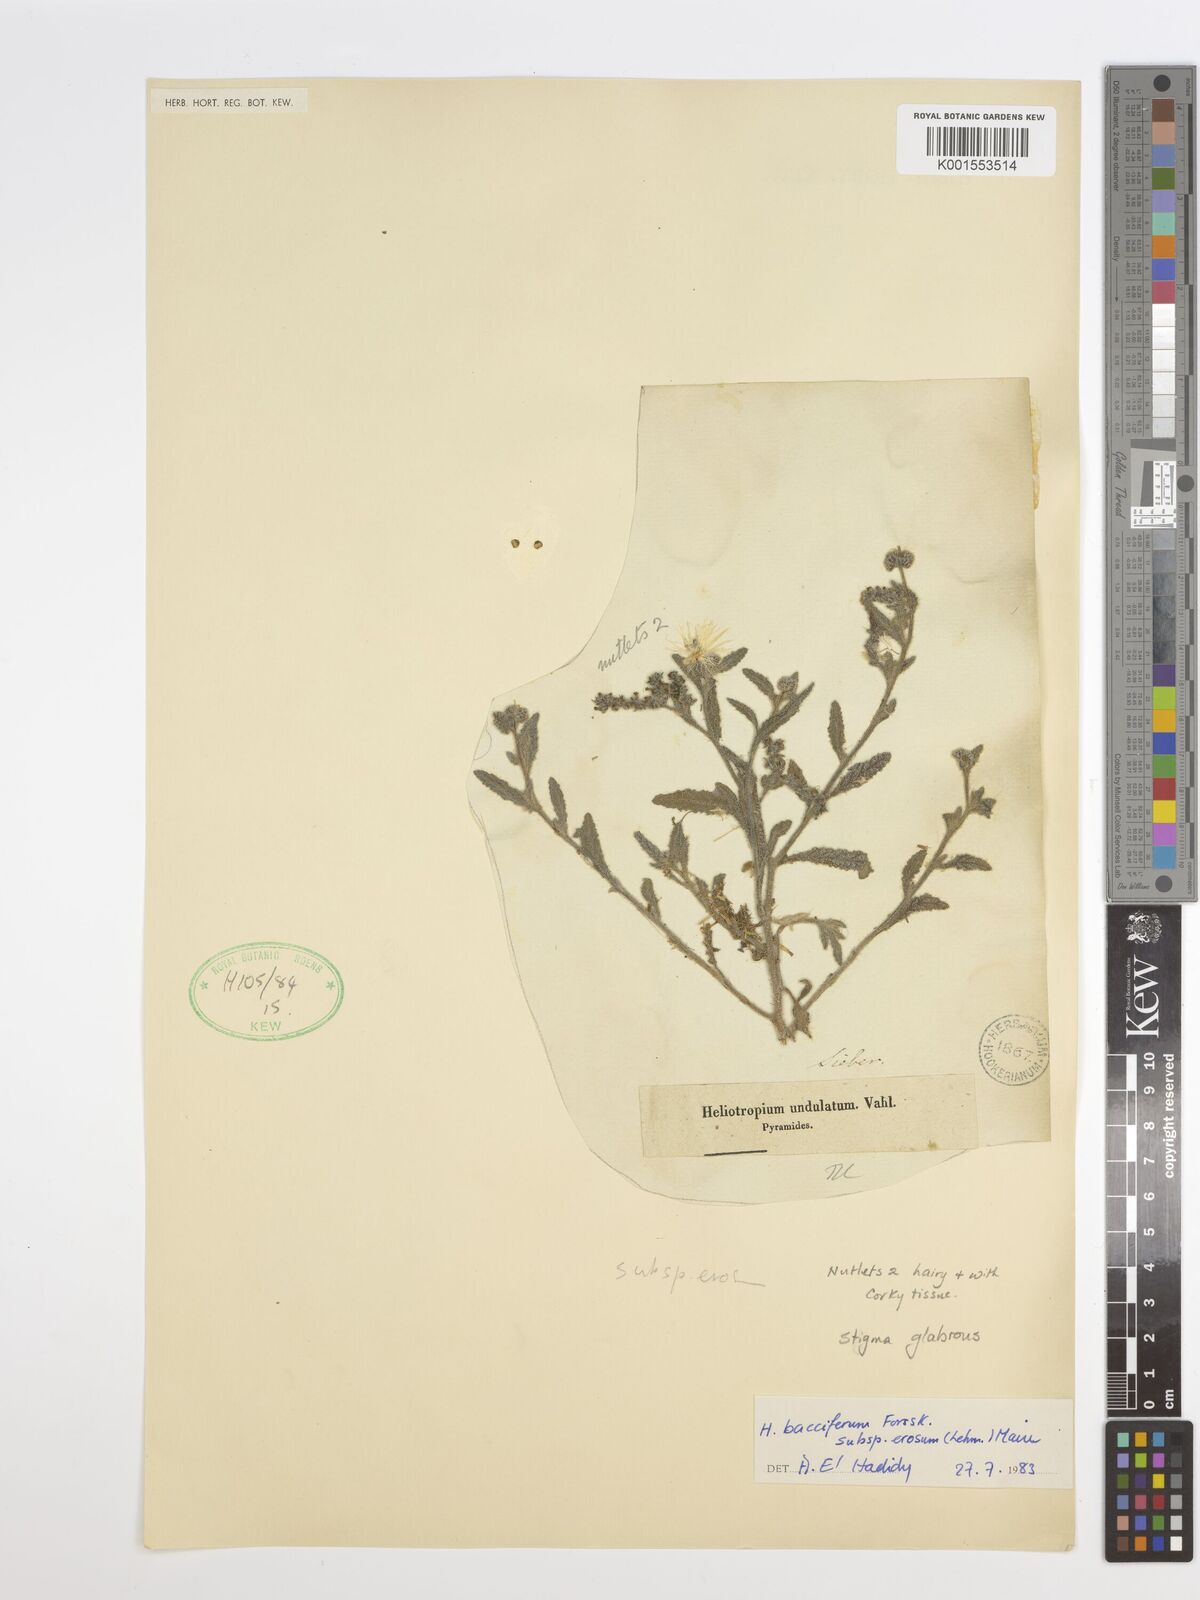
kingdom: Plantae
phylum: Tracheophyta
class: Magnoliopsida
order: Boraginales
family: Heliotropiaceae
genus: Heliotropium
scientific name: Heliotropium ramosissimum
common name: Wavy heliotrope
